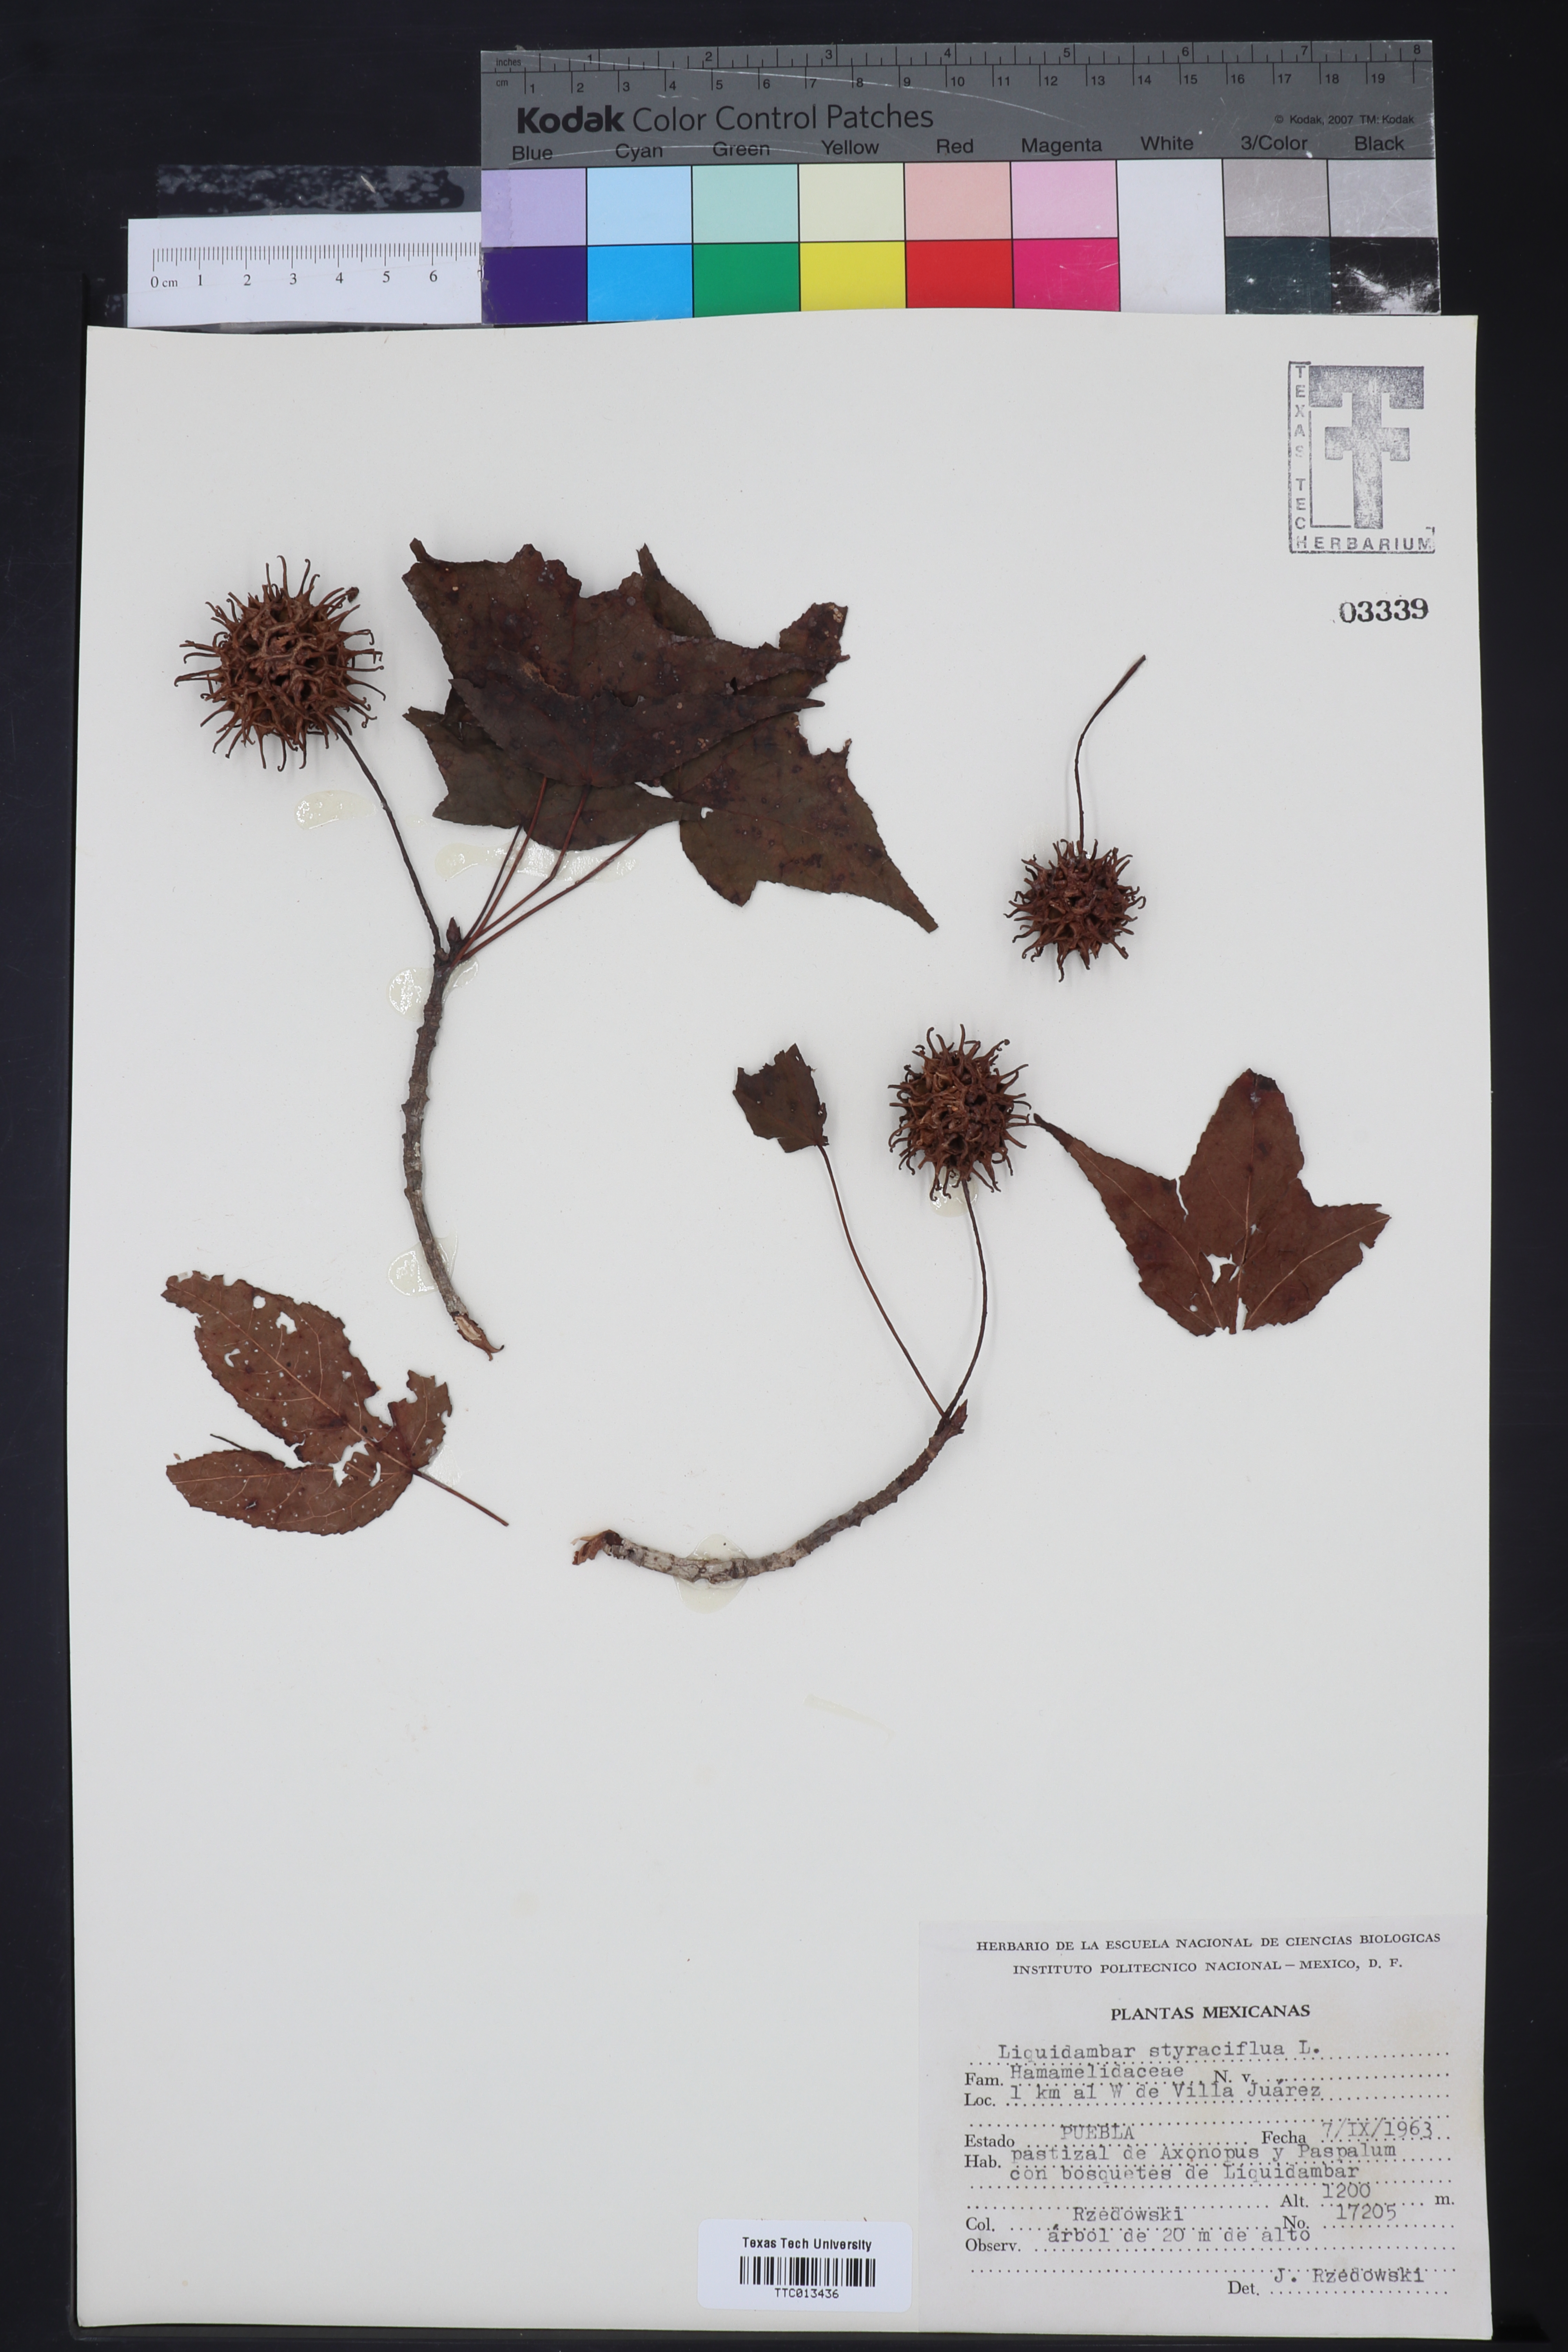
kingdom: Plantae
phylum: Tracheophyta
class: Magnoliopsida
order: Saxifragales
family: Altingiaceae
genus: Liquidambar
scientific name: Liquidambar styraciflua
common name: Sweet gum
